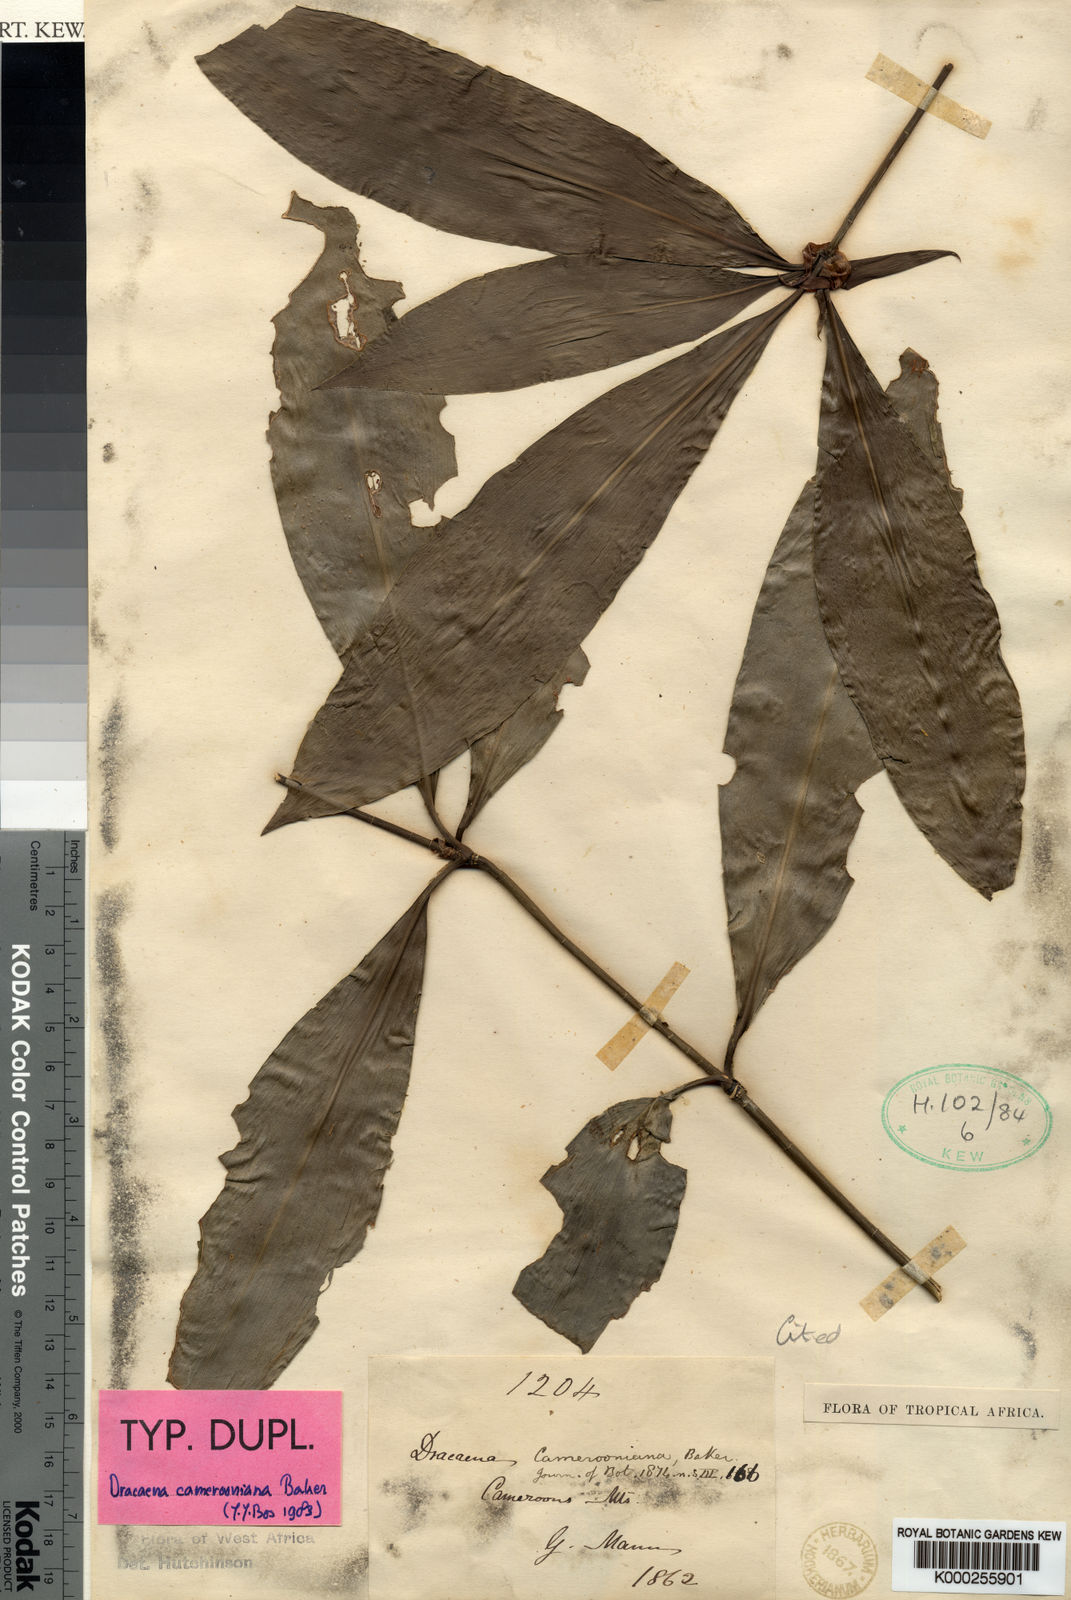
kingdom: Plantae
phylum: Tracheophyta
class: Liliopsida
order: Asparagales
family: Asparagaceae
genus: Dracaena
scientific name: Dracaena camerooniana
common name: Dragon tree
